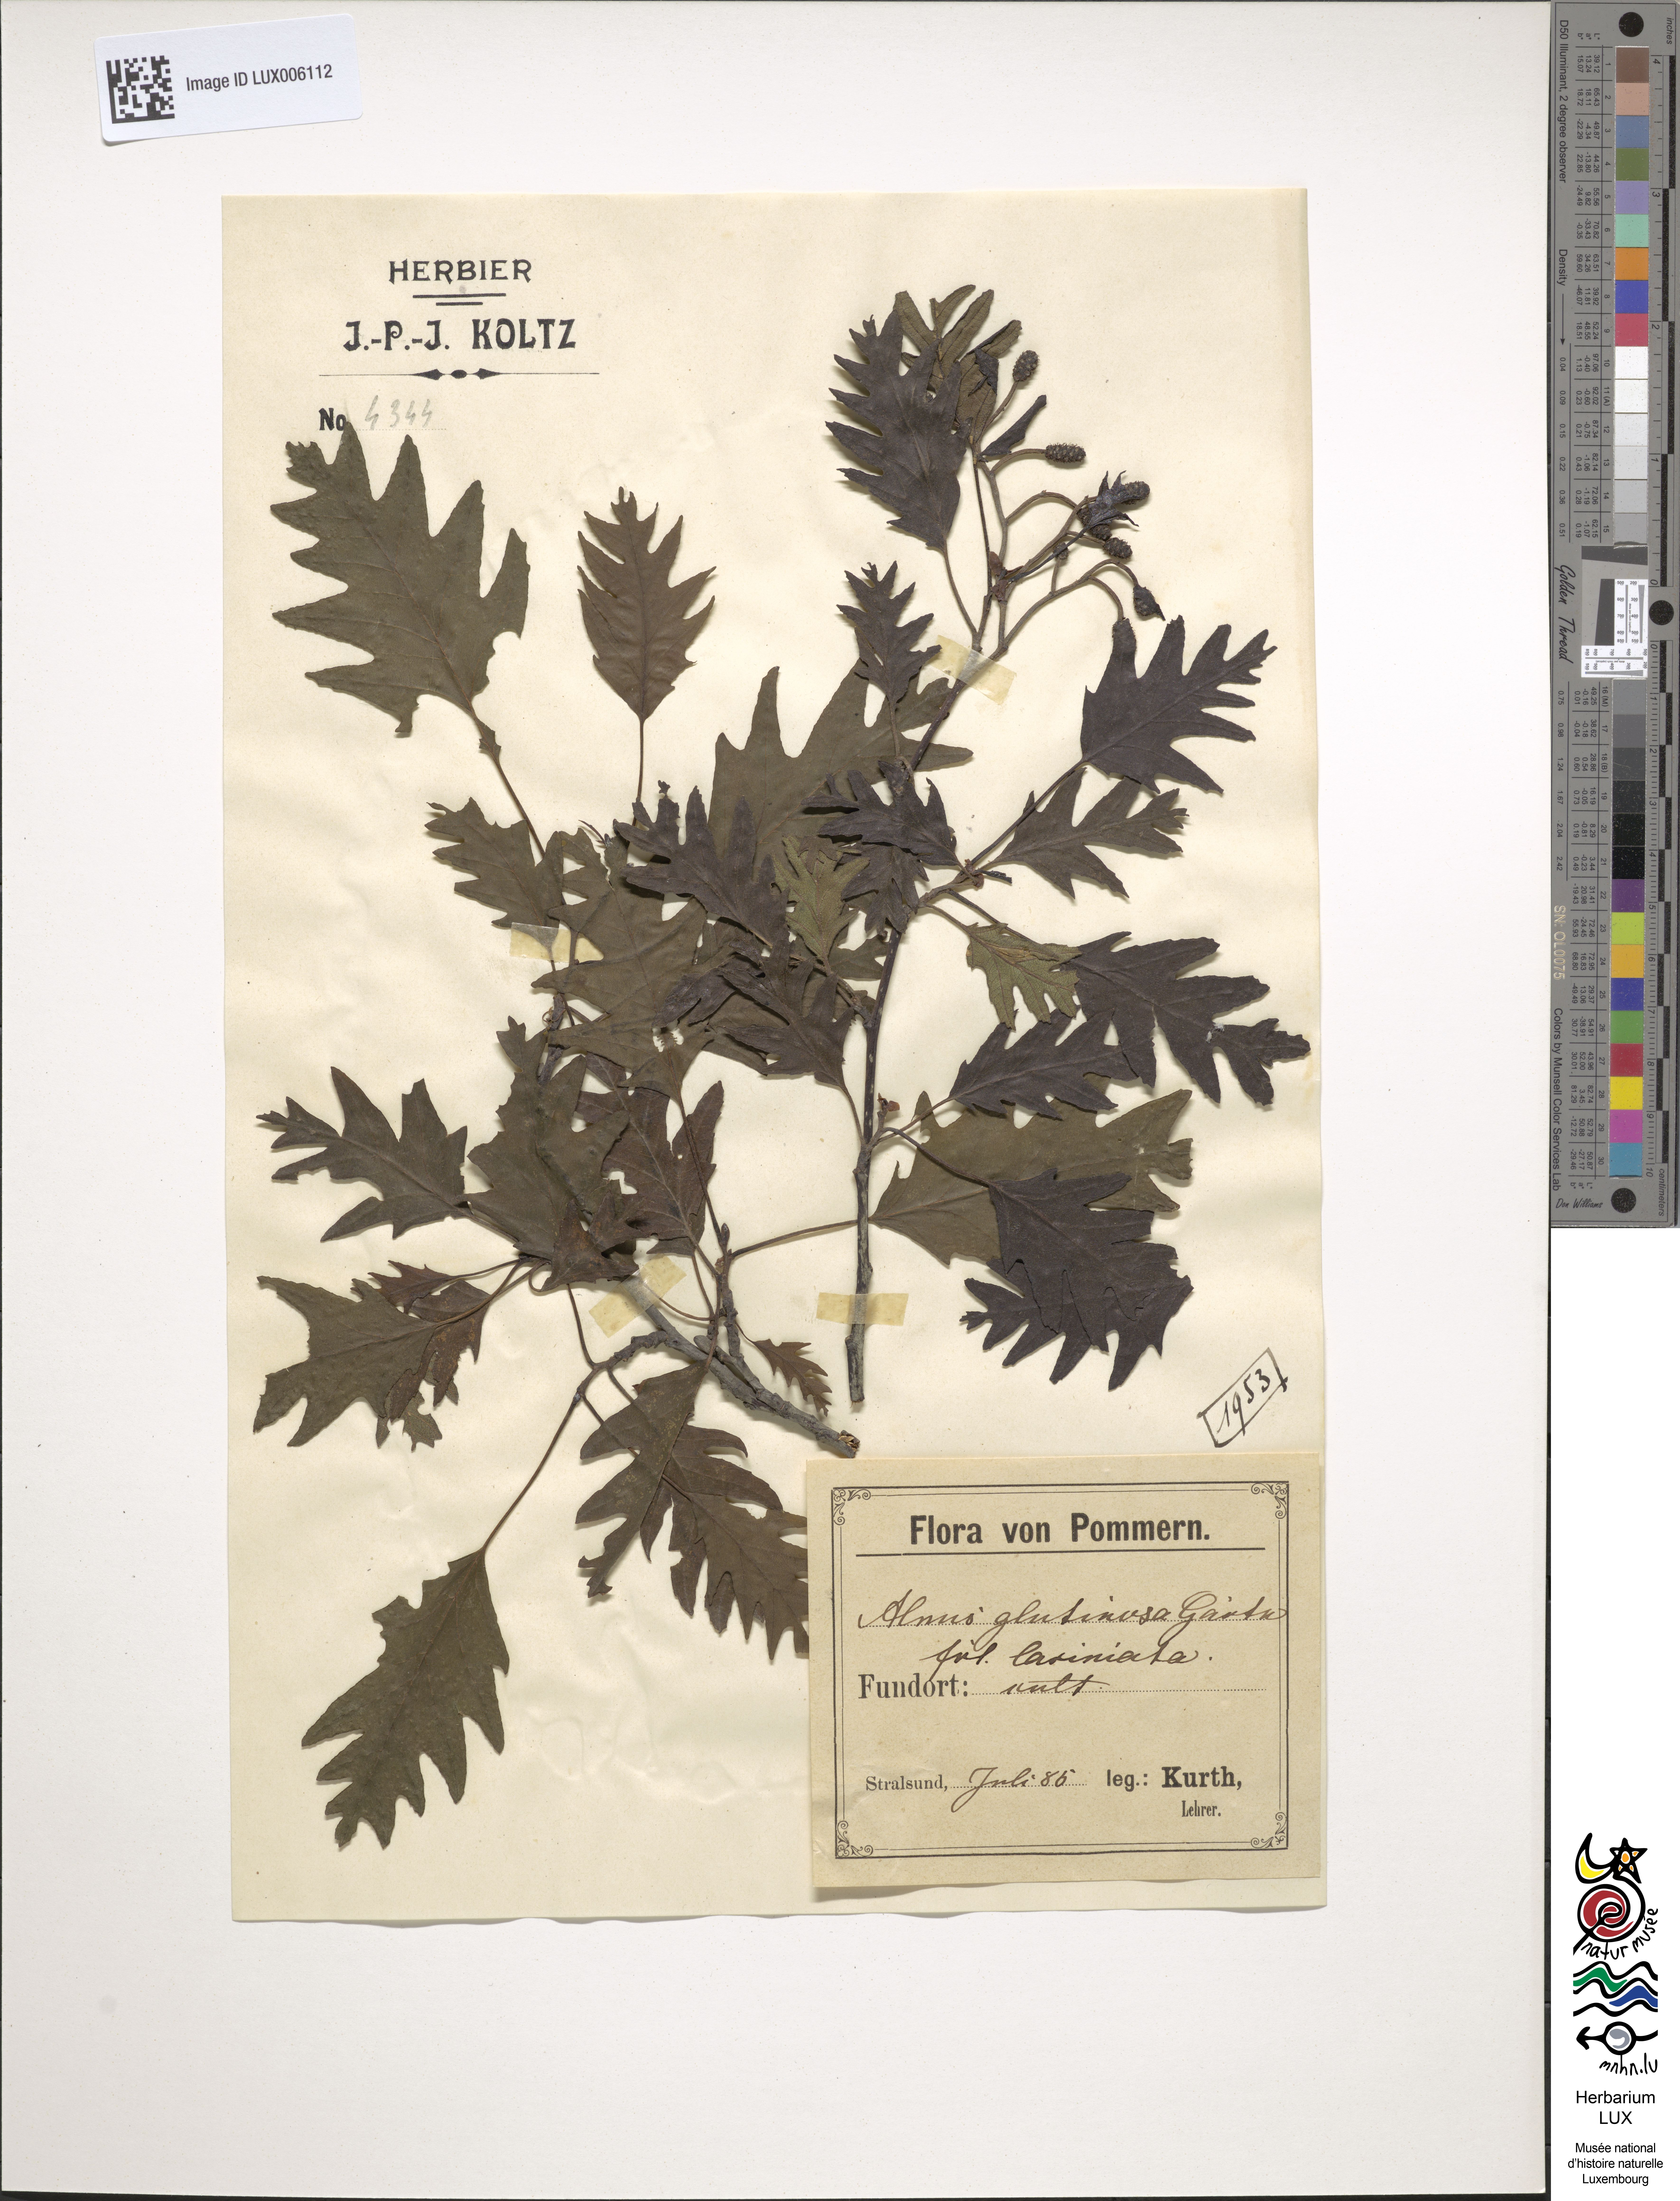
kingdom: Plantae
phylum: Tracheophyta
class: Magnoliopsida
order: Fagales
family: Betulaceae
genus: Alnus
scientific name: Alnus glutinosa
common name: Black alder
